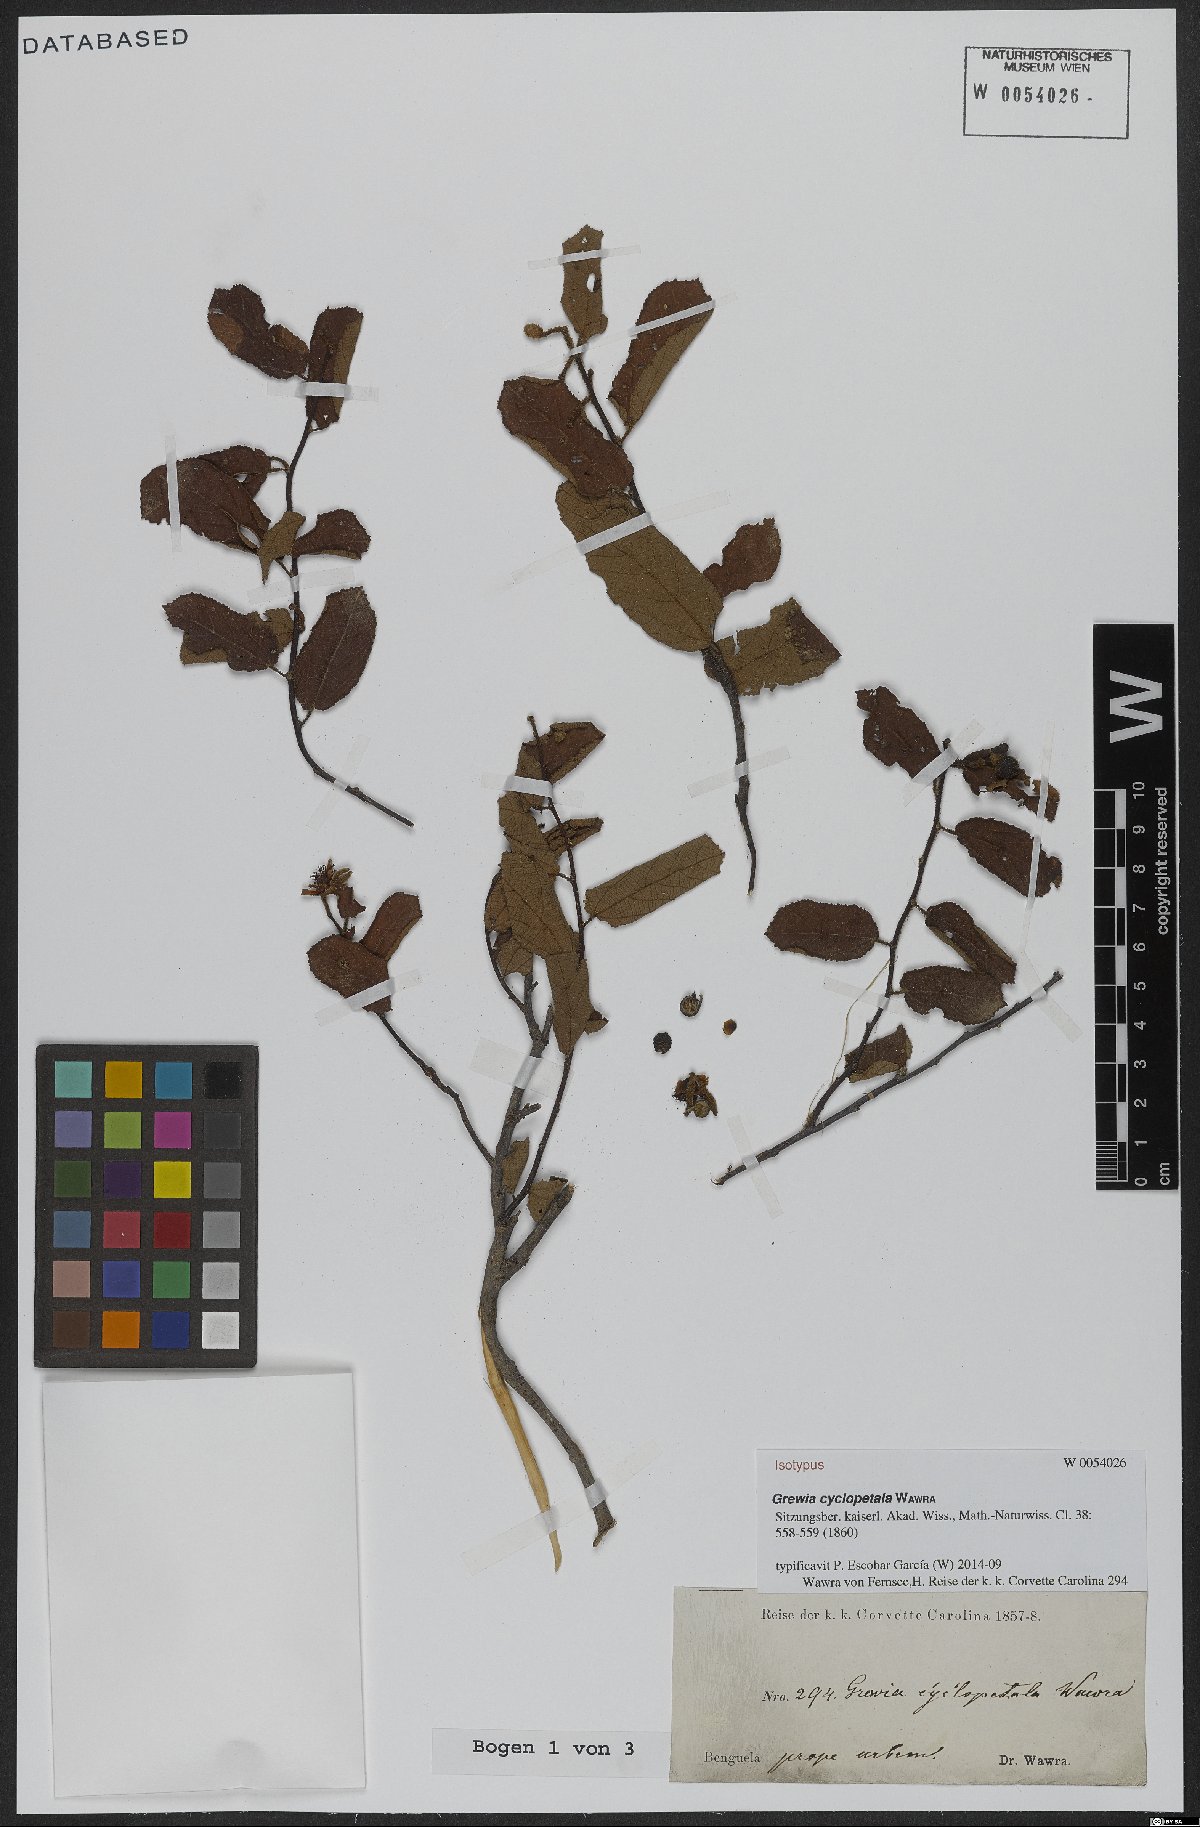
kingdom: Plantae
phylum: Tracheophyta
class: Magnoliopsida
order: Malvales
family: Malvaceae
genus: Grewia
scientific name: Grewia cyclopetala
